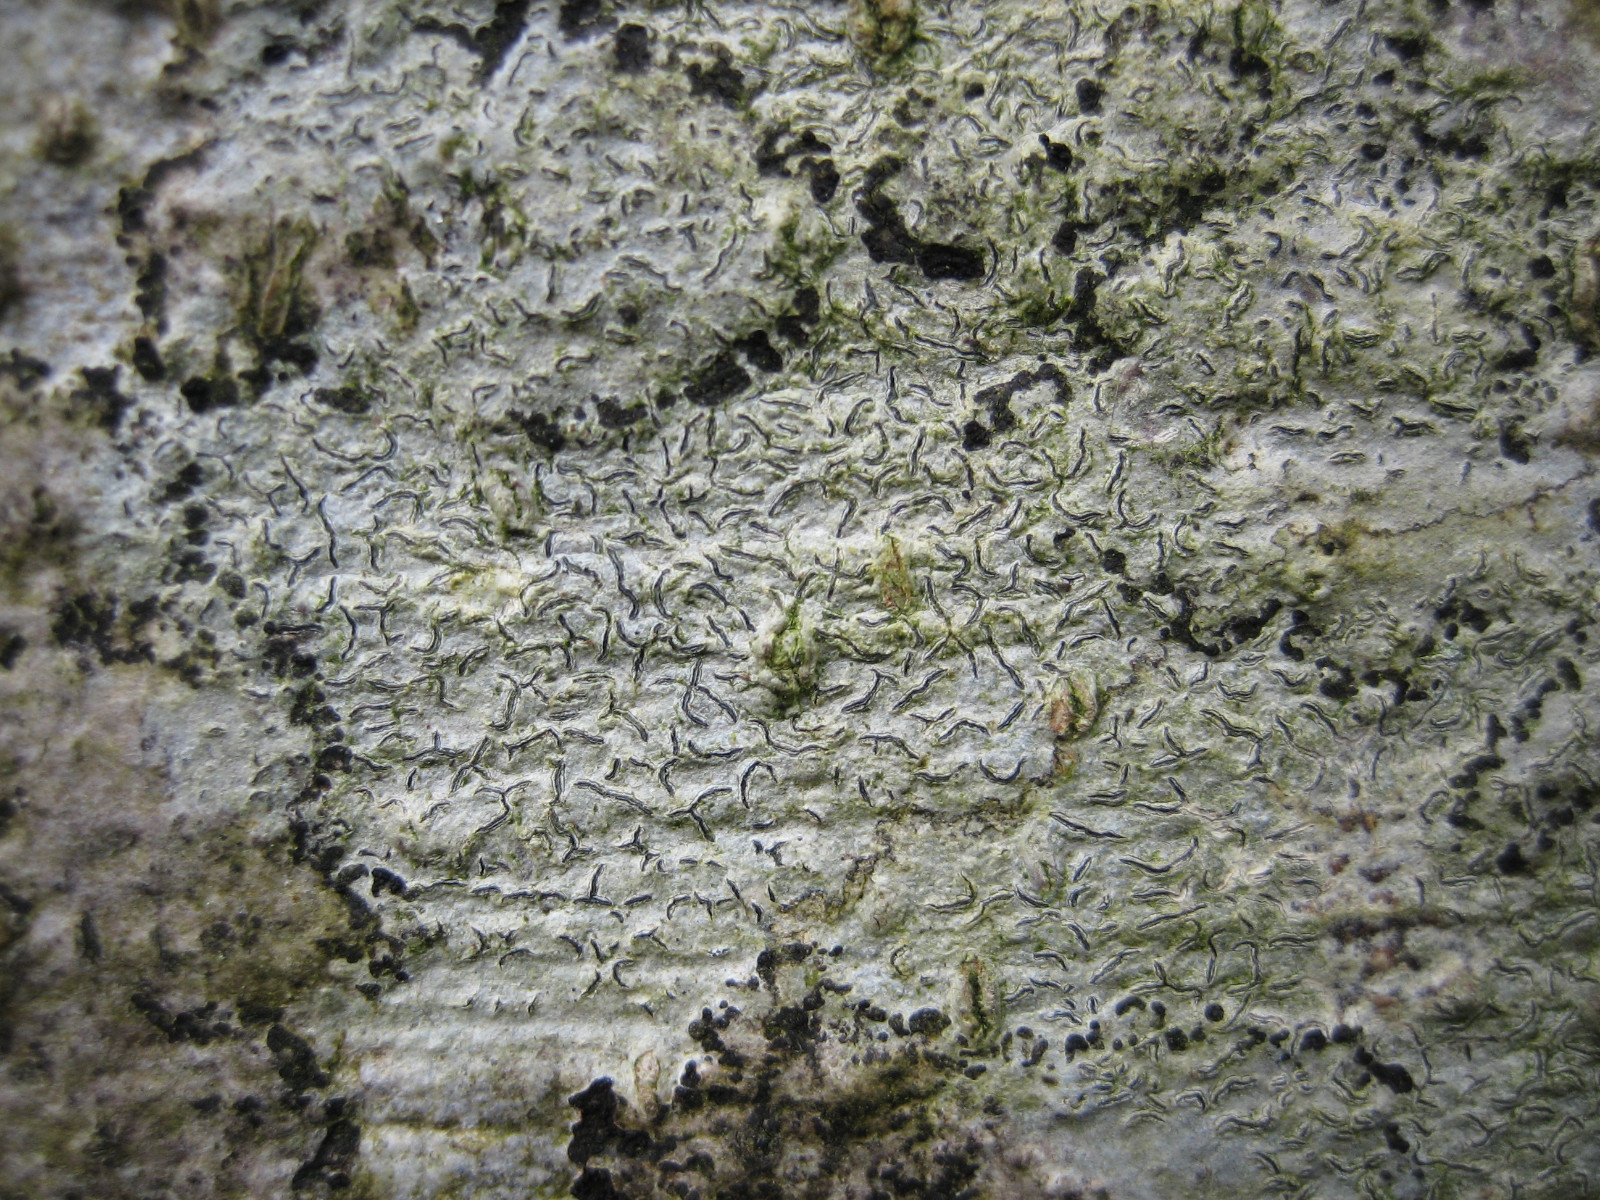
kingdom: Fungi
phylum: Ascomycota
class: Lecanoromycetes
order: Ostropales
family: Graphidaceae
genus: Graphis
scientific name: Graphis scripta
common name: almindelig skriftlav
